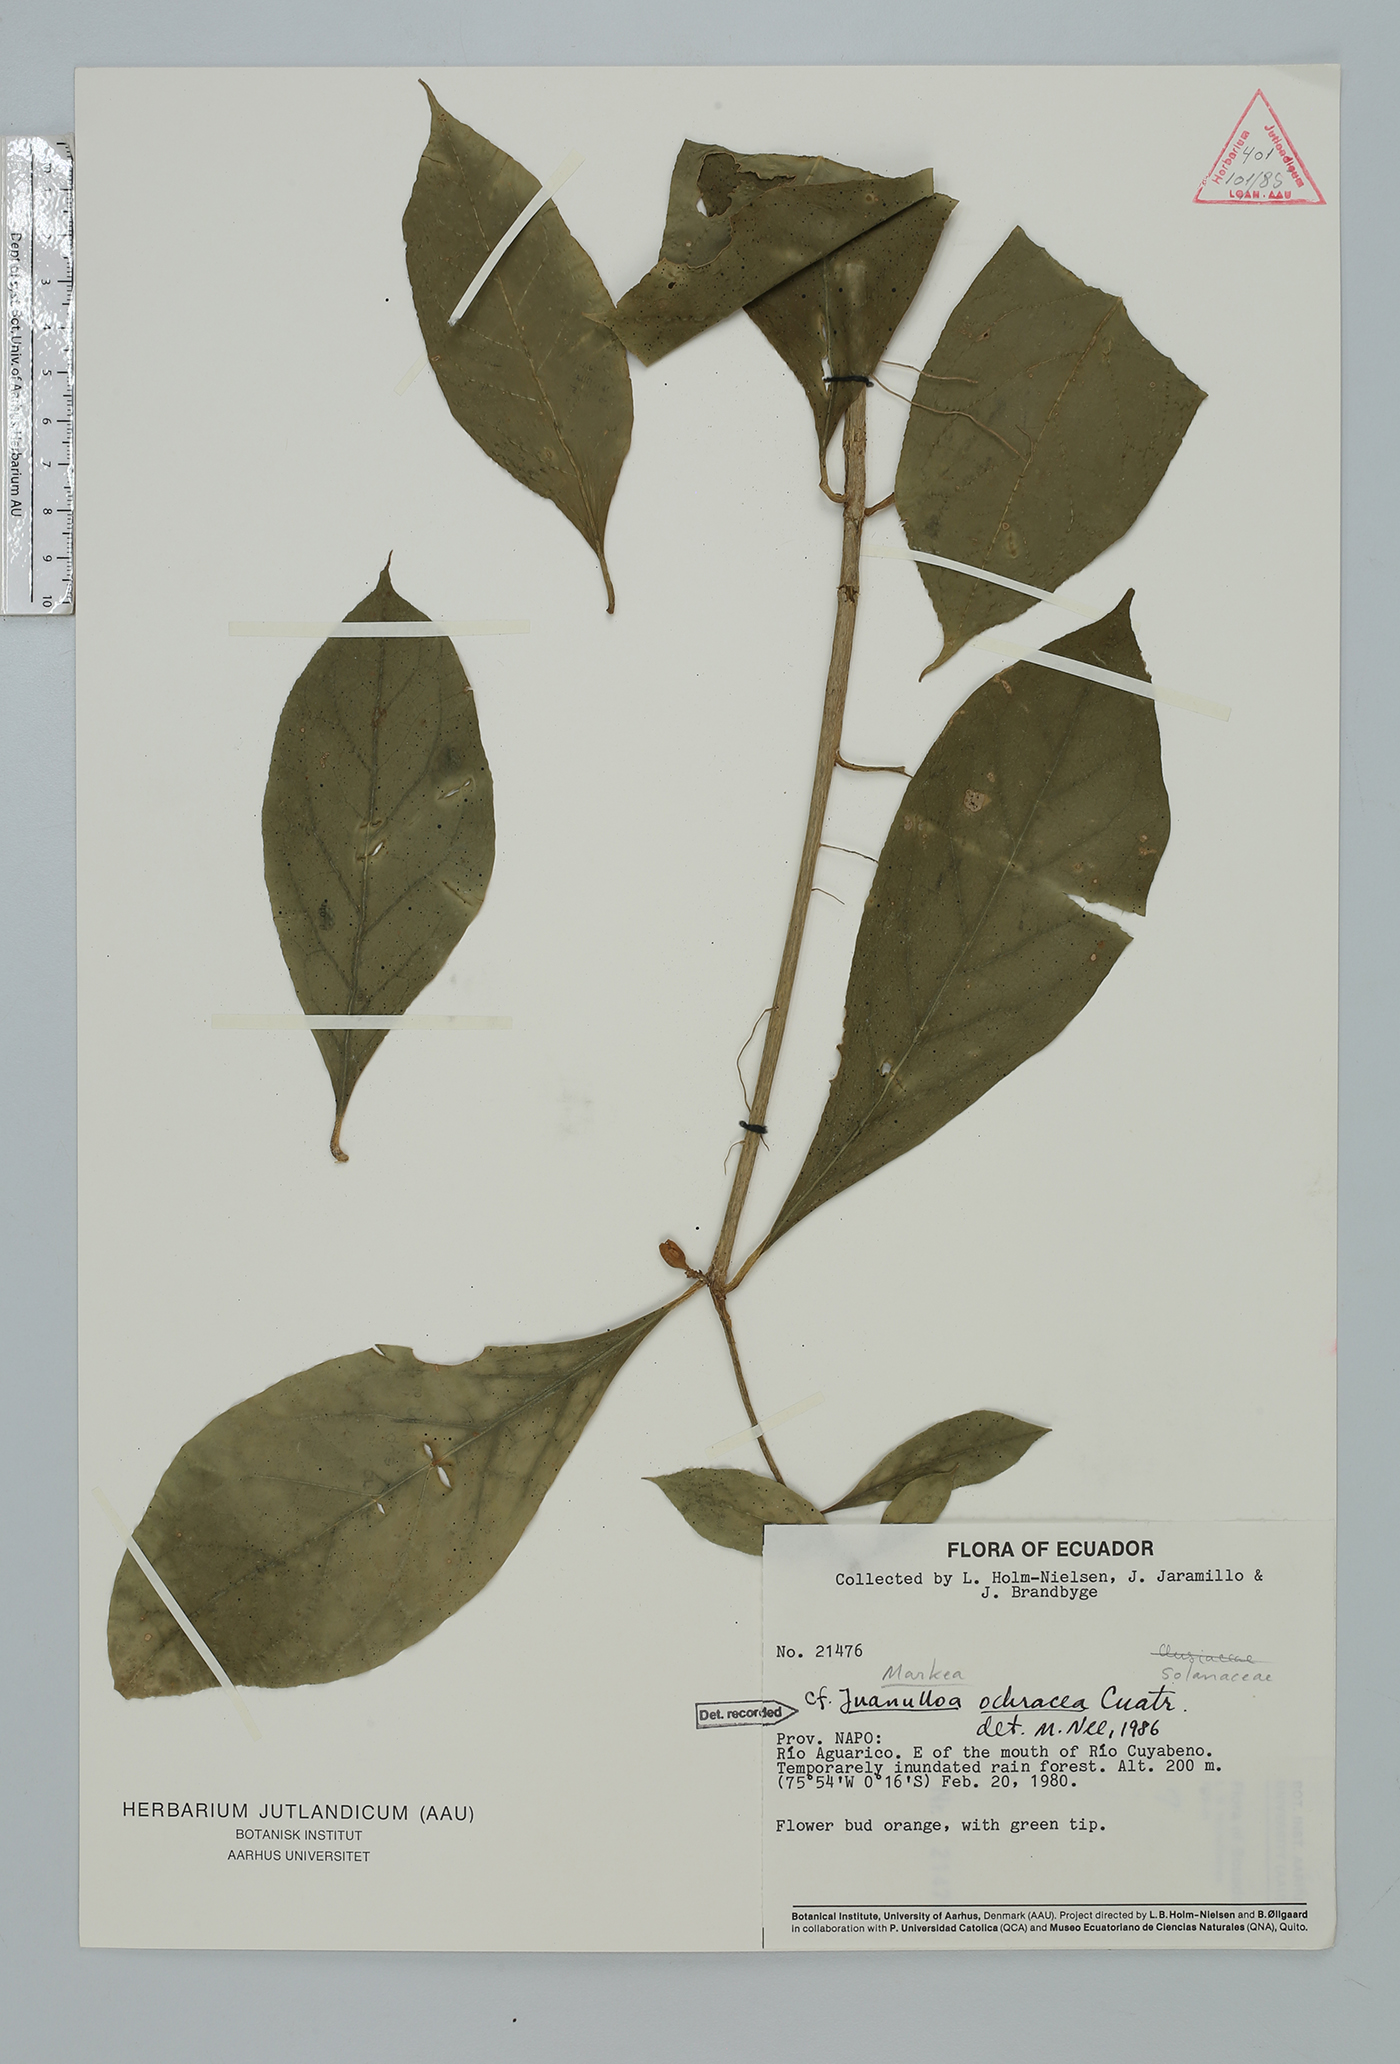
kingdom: Plantae
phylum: Tracheophyta
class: Magnoliopsida
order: Solanales
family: Solanaceae
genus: Hawkesiophyton
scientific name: Hawkesiophyton ochraceum
